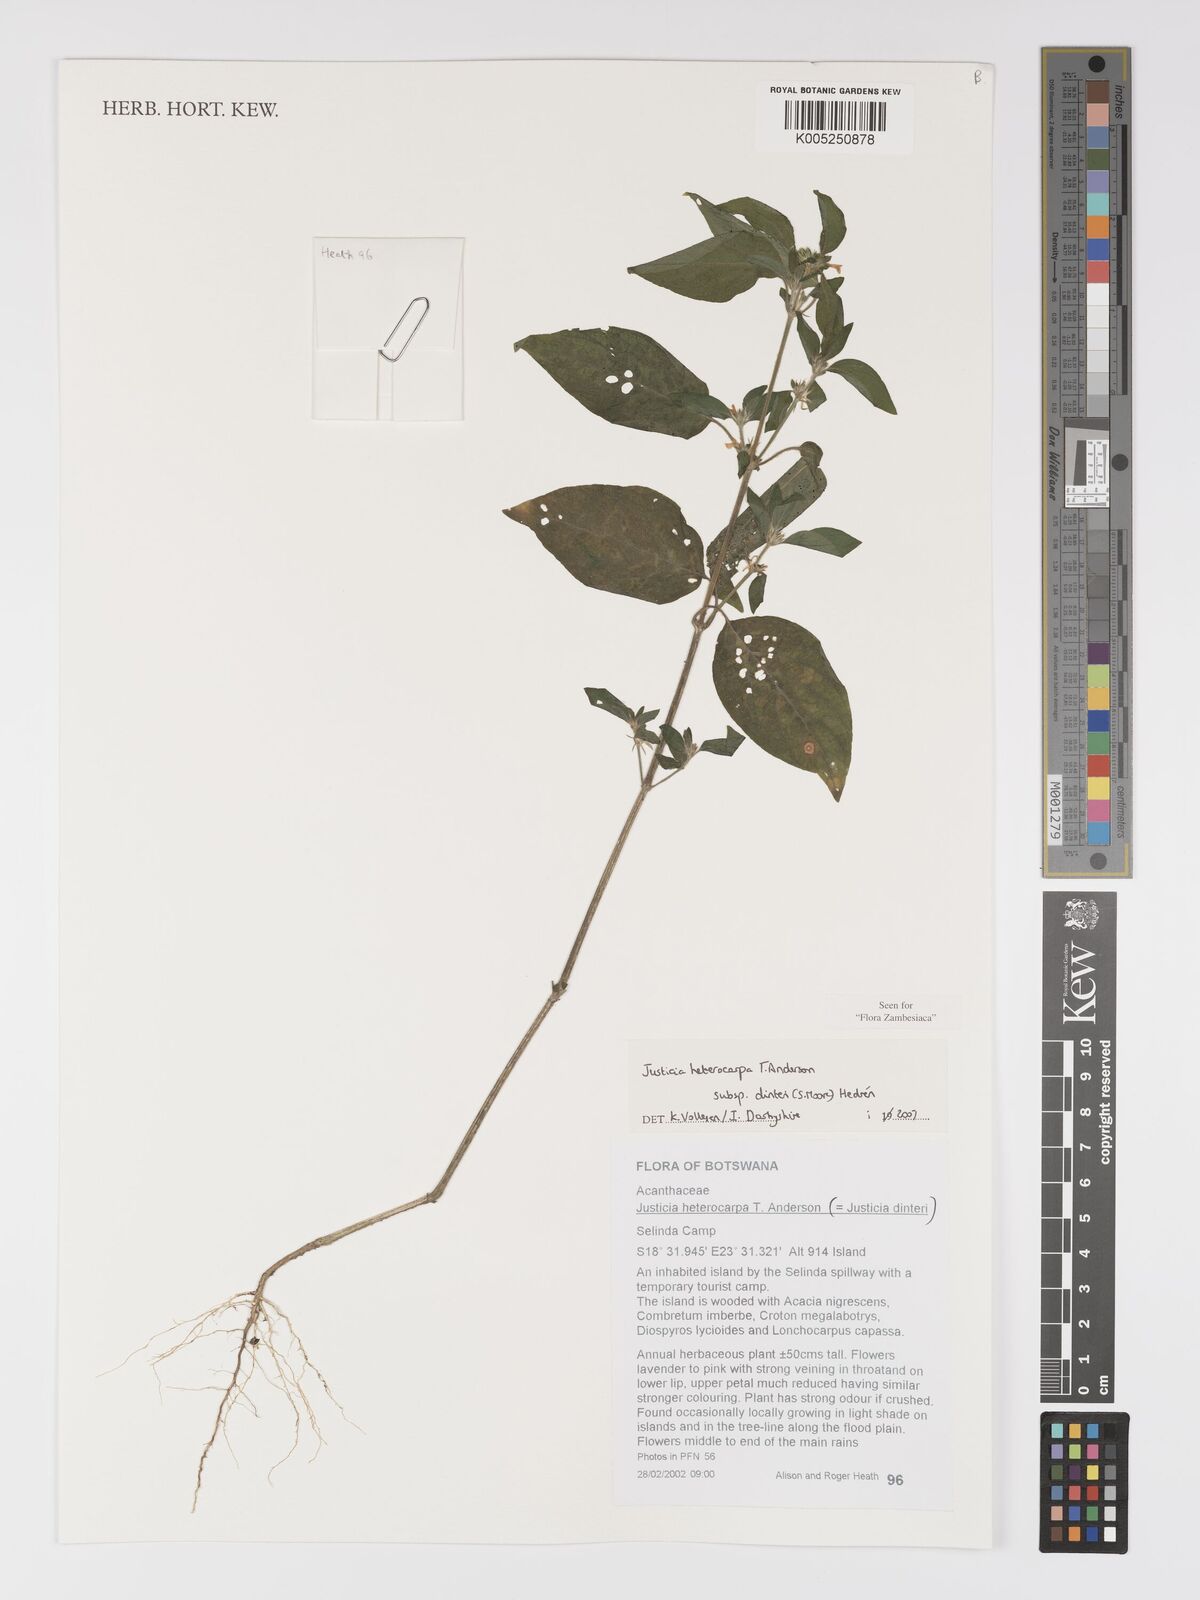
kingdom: Plantae
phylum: Tracheophyta
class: Magnoliopsida
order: Lamiales
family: Acanthaceae
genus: Justicia
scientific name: Justicia heterocarpa
